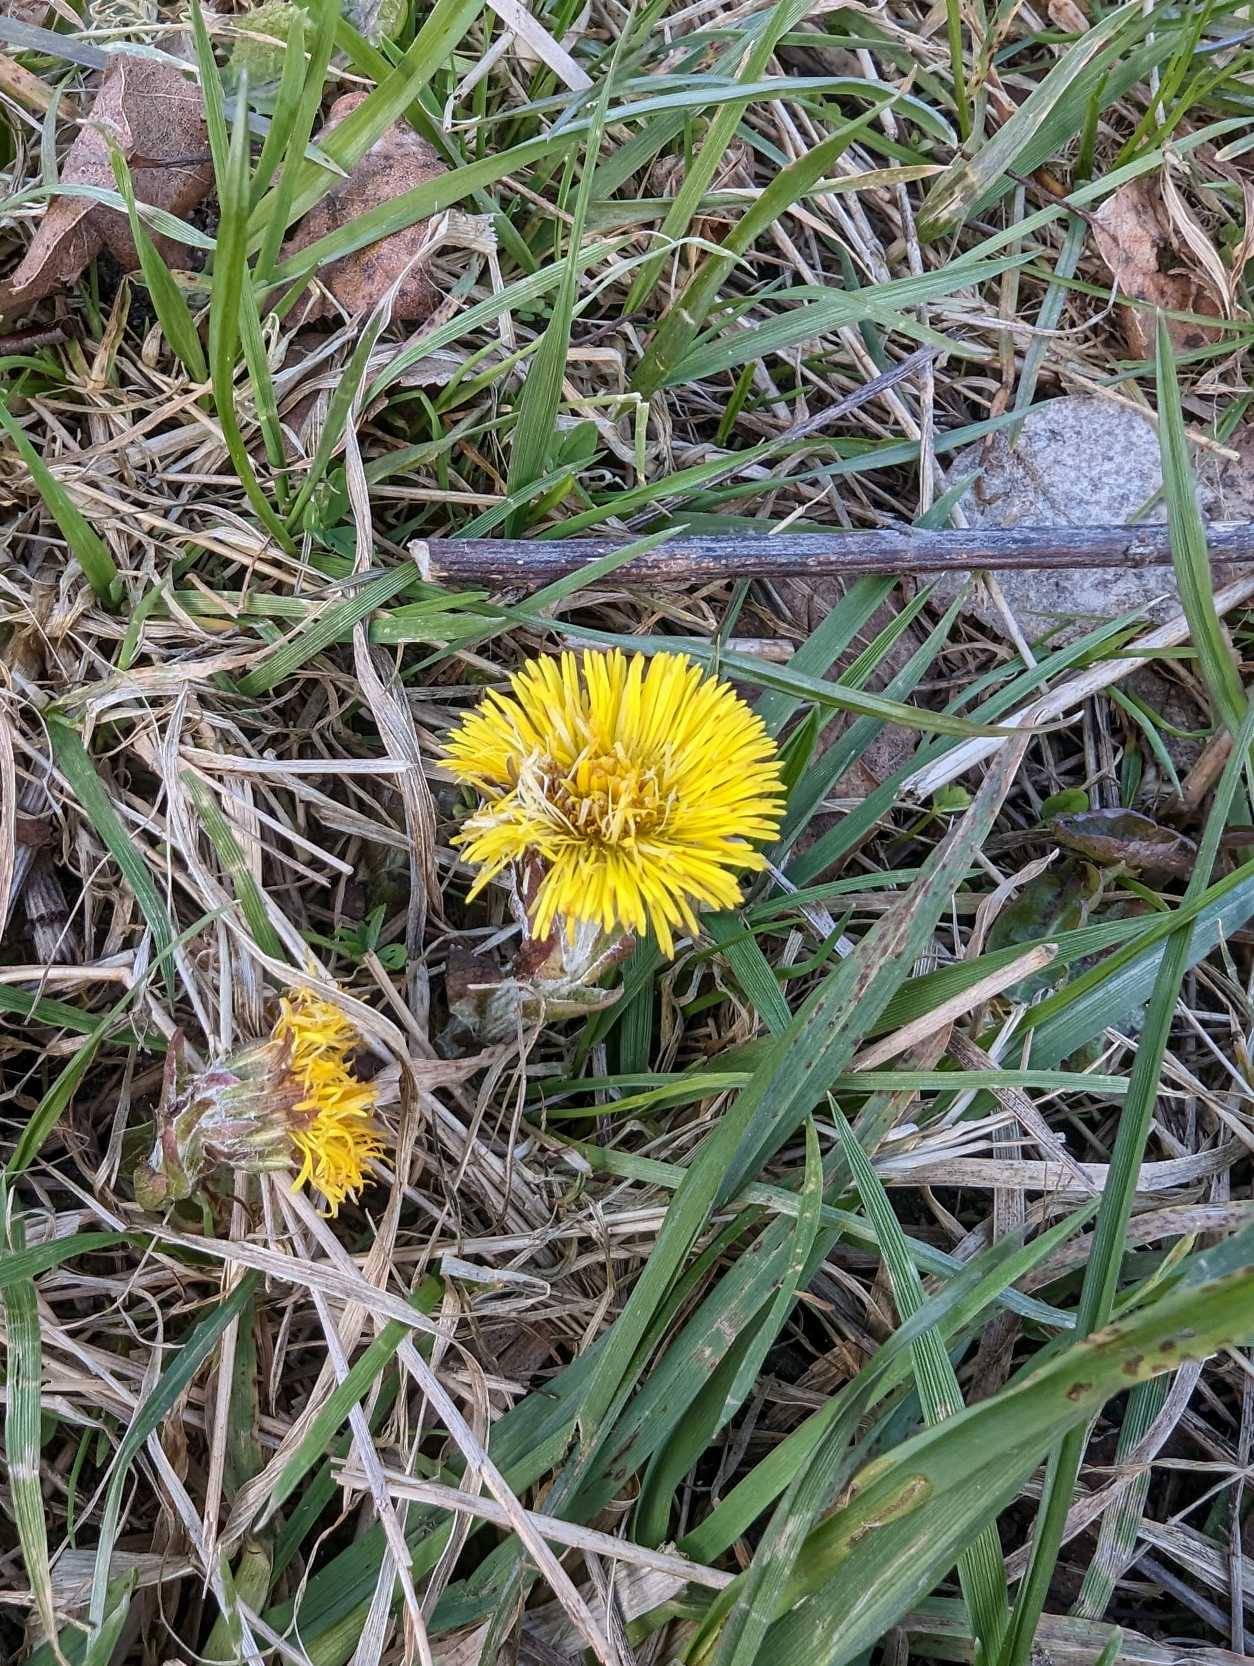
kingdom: Plantae
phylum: Tracheophyta
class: Magnoliopsida
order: Asterales
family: Asteraceae
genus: Tussilago
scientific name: Tussilago farfara
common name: Følfod
